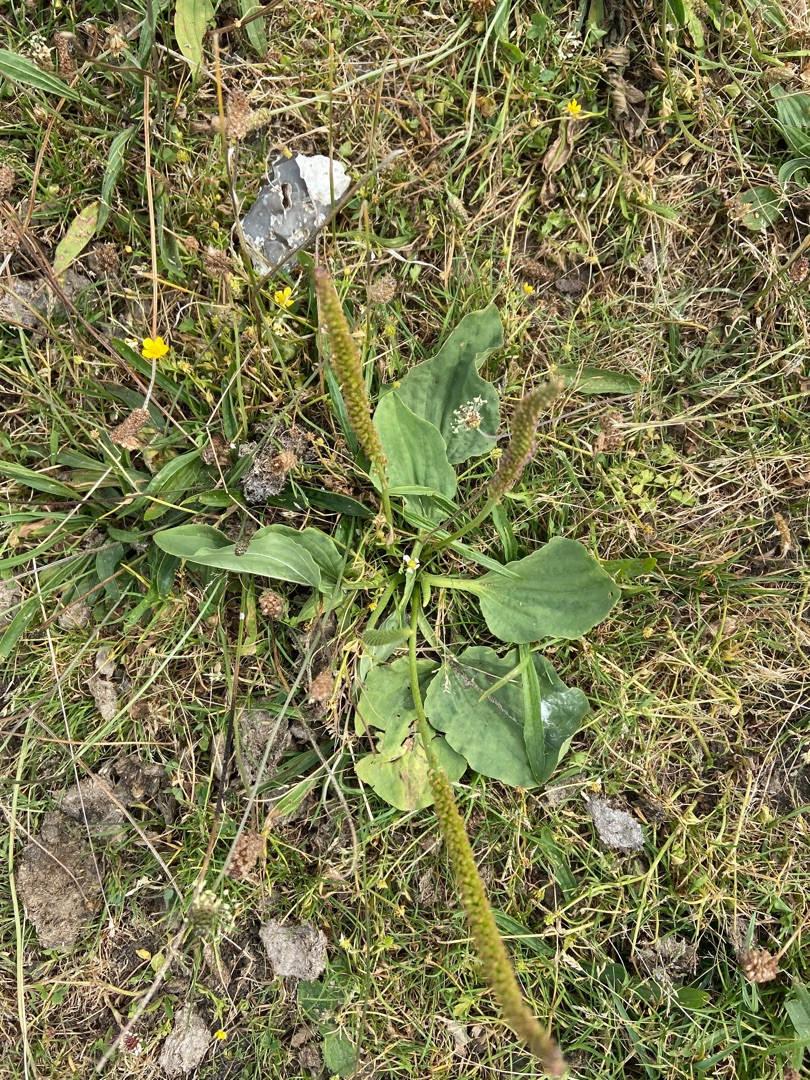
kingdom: Plantae
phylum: Tracheophyta
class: Magnoliopsida
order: Lamiales
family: Plantaginaceae
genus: Plantago
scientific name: Plantago major
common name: Glat vejbred
